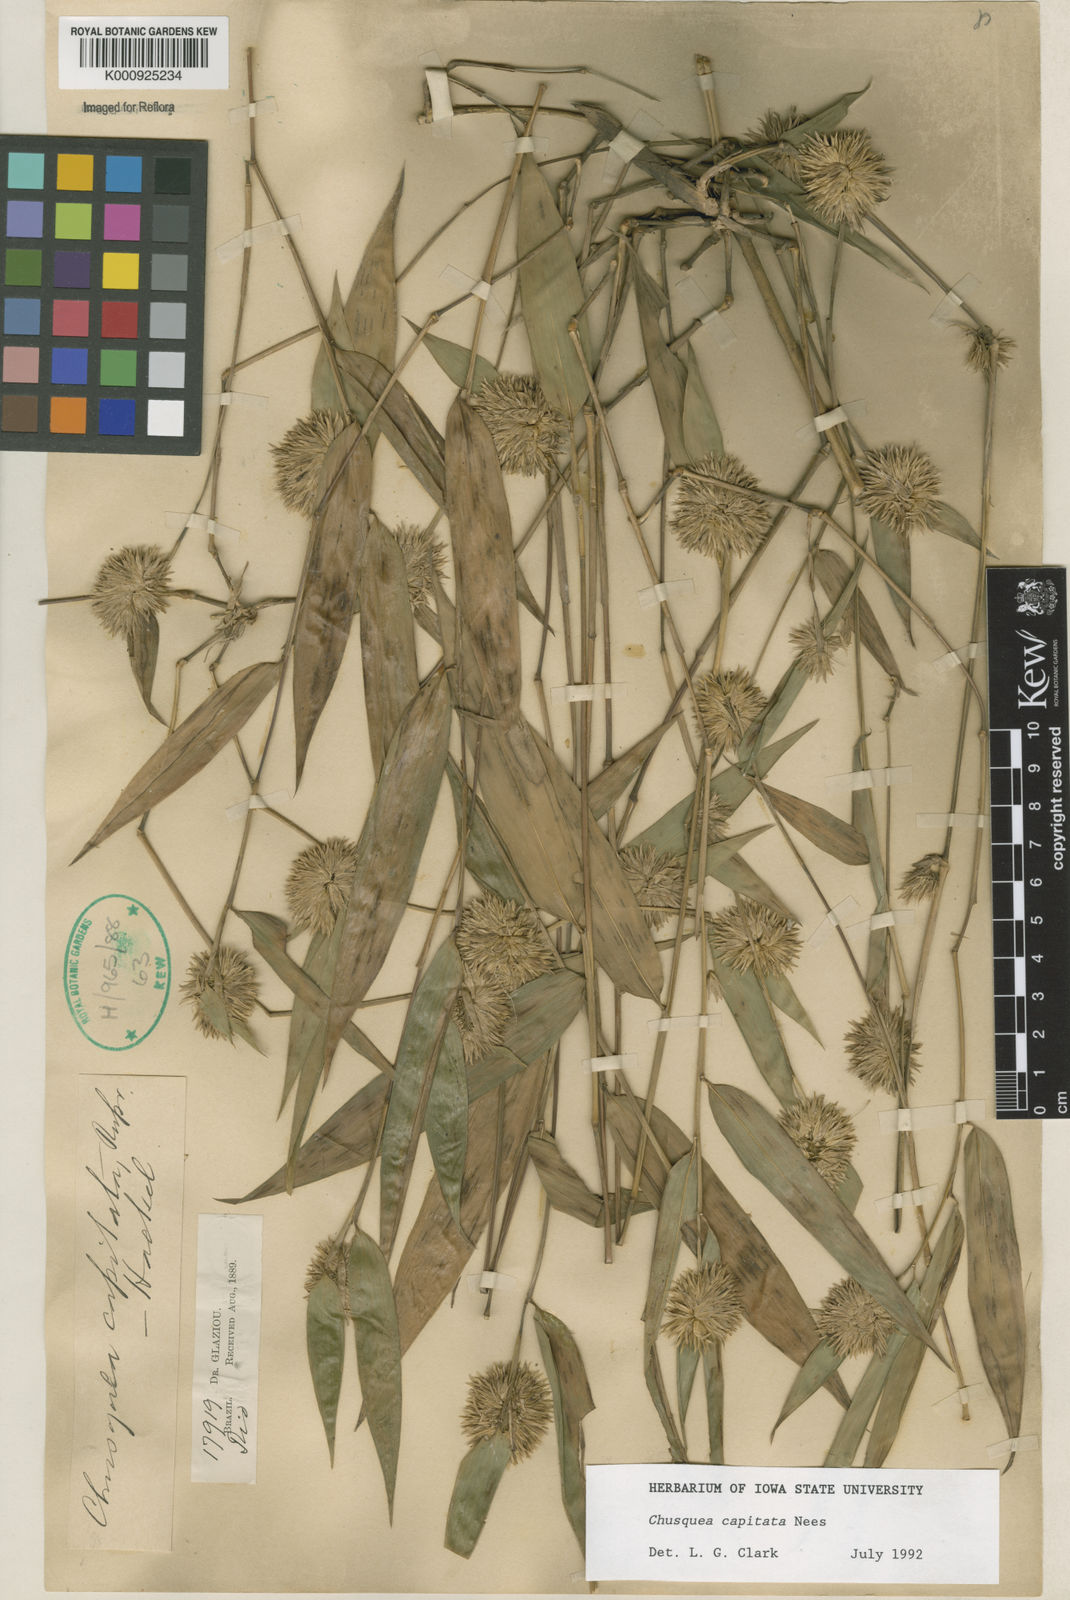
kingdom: Plantae
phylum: Tracheophyta
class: Liliopsida
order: Poales
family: Poaceae
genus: Chusquea
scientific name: Chusquea capitata
